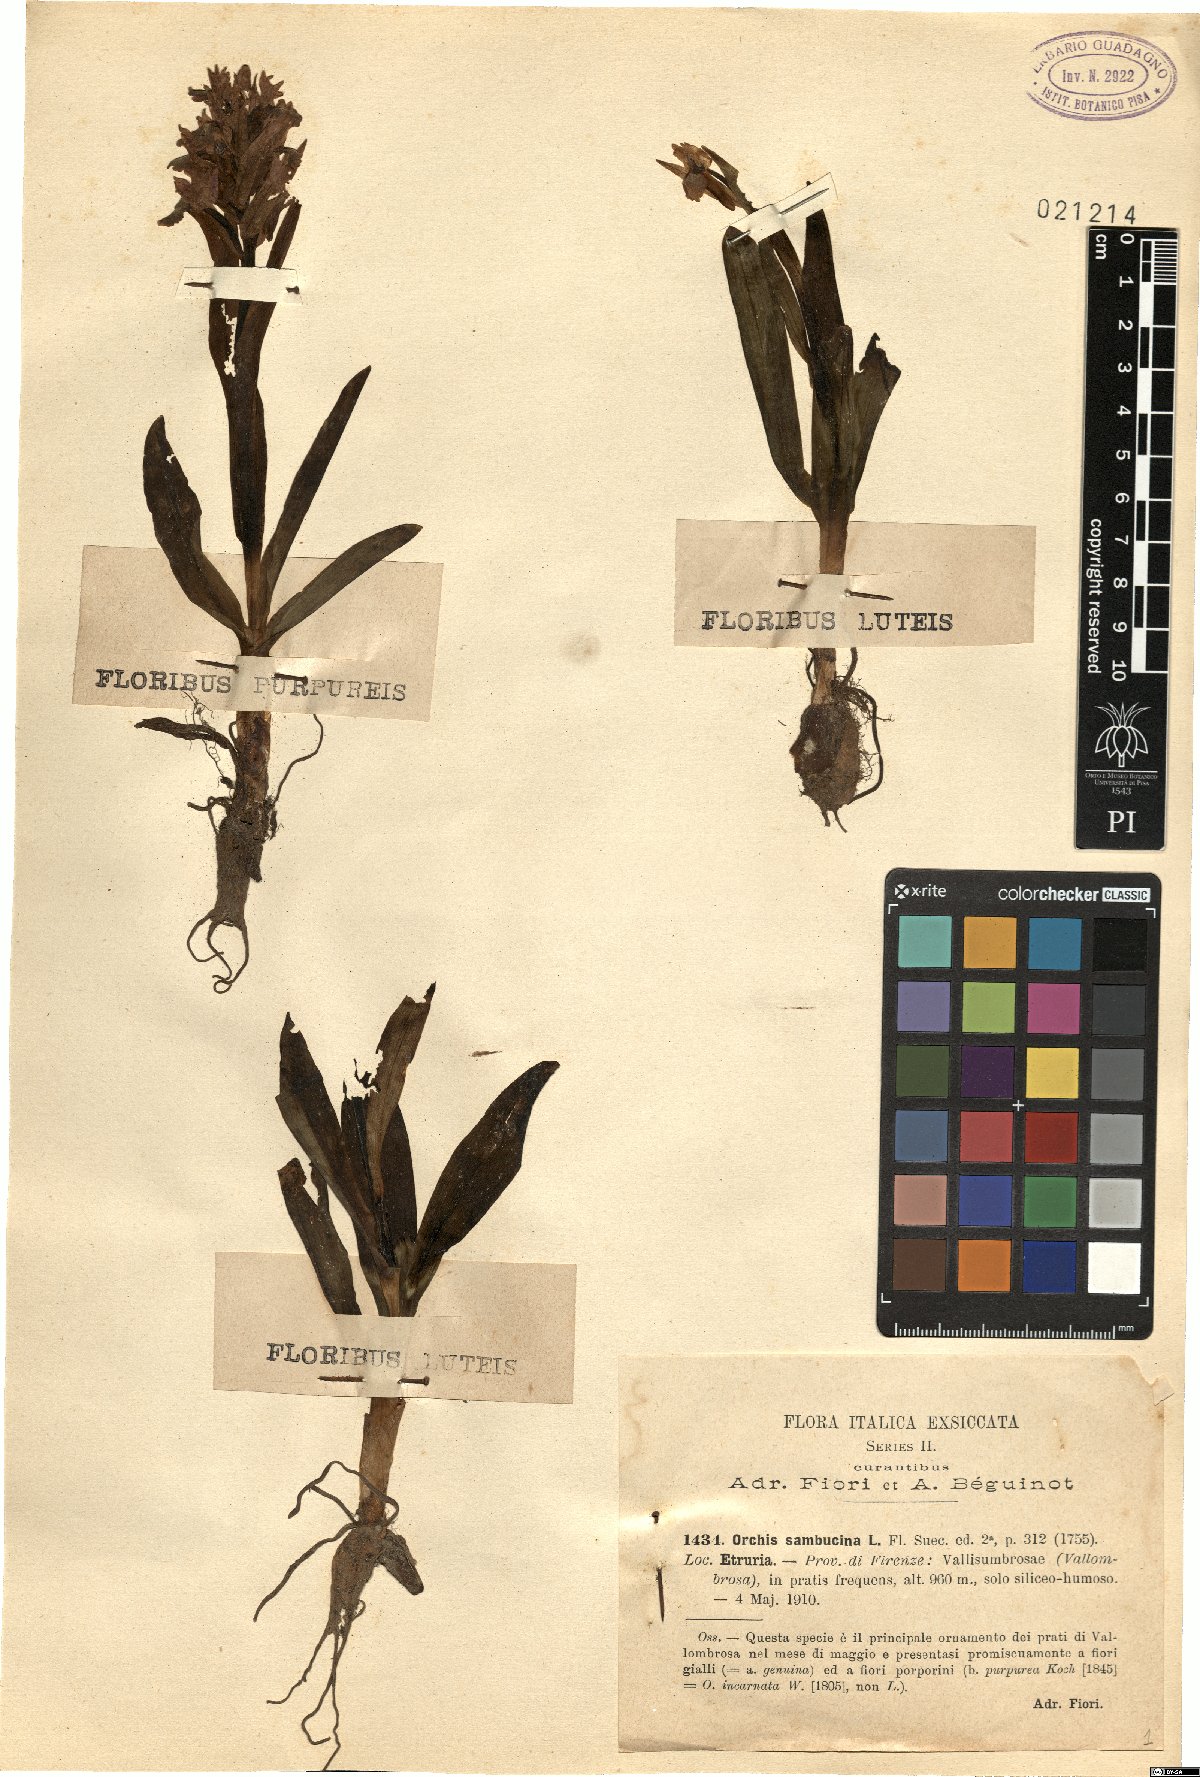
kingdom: Plantae
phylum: Tracheophyta
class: Liliopsida
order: Asparagales
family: Orchidaceae
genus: Dactylorhiza
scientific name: Dactylorhiza sambucina
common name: Elder-flowered orchid
